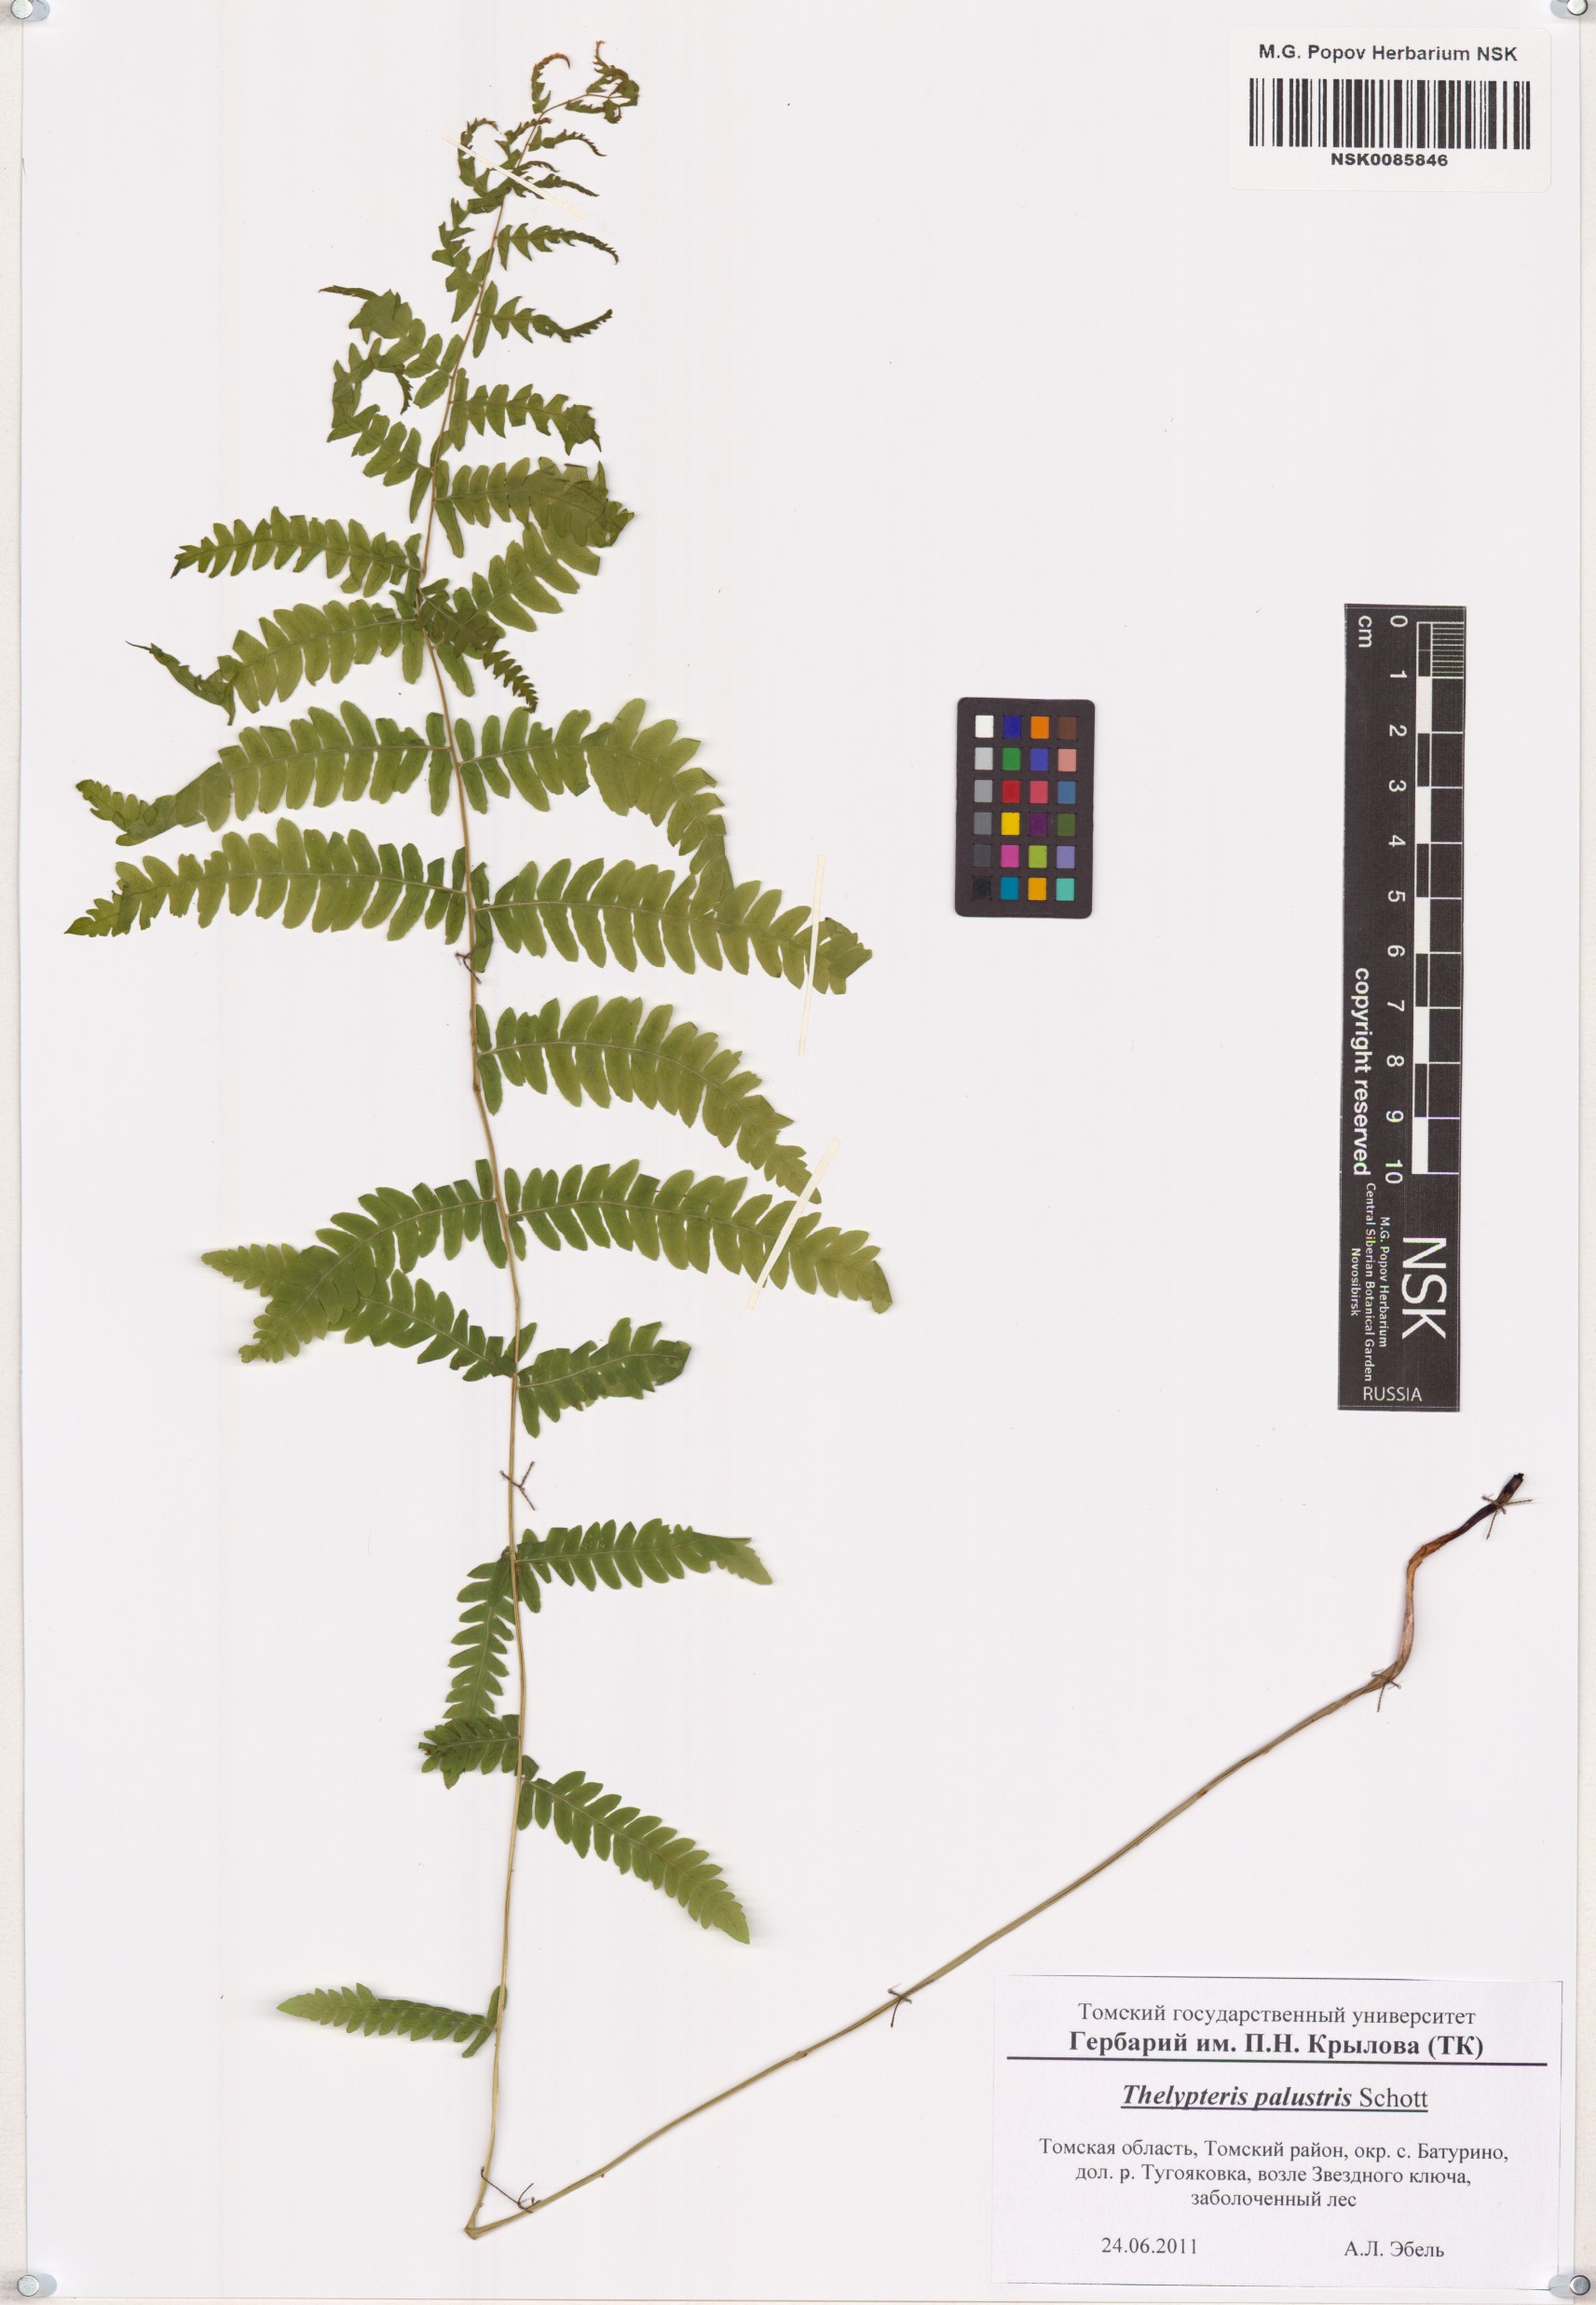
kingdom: Plantae
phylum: Tracheophyta
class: Polypodiopsida
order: Polypodiales
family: Thelypteridaceae
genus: Thelypteris
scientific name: Thelypteris palustris
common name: Marsh fern
